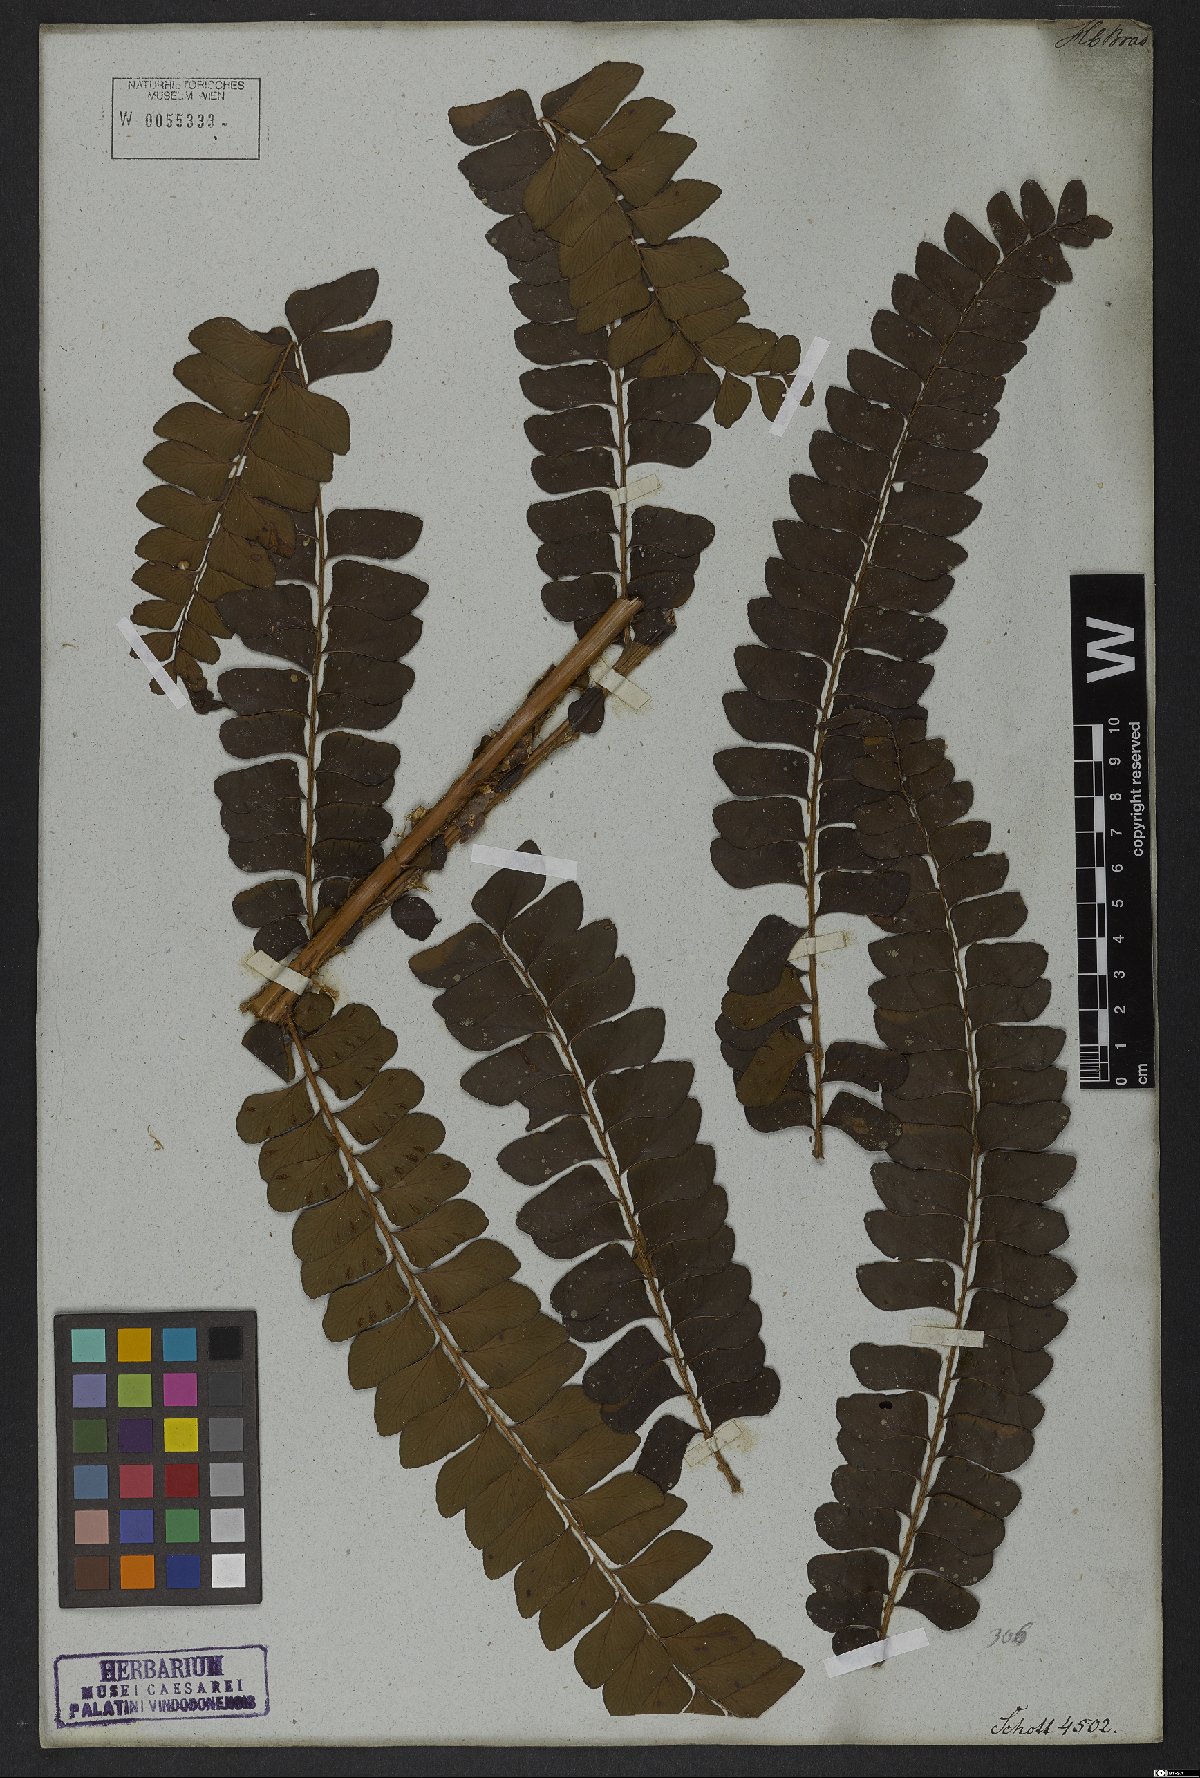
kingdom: Plantae
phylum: Tracheophyta
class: Polypodiopsida
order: Polypodiales
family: Didymochlaenaceae
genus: Didymochlaena
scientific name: Didymochlaena truncatula
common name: Mahogany fern
